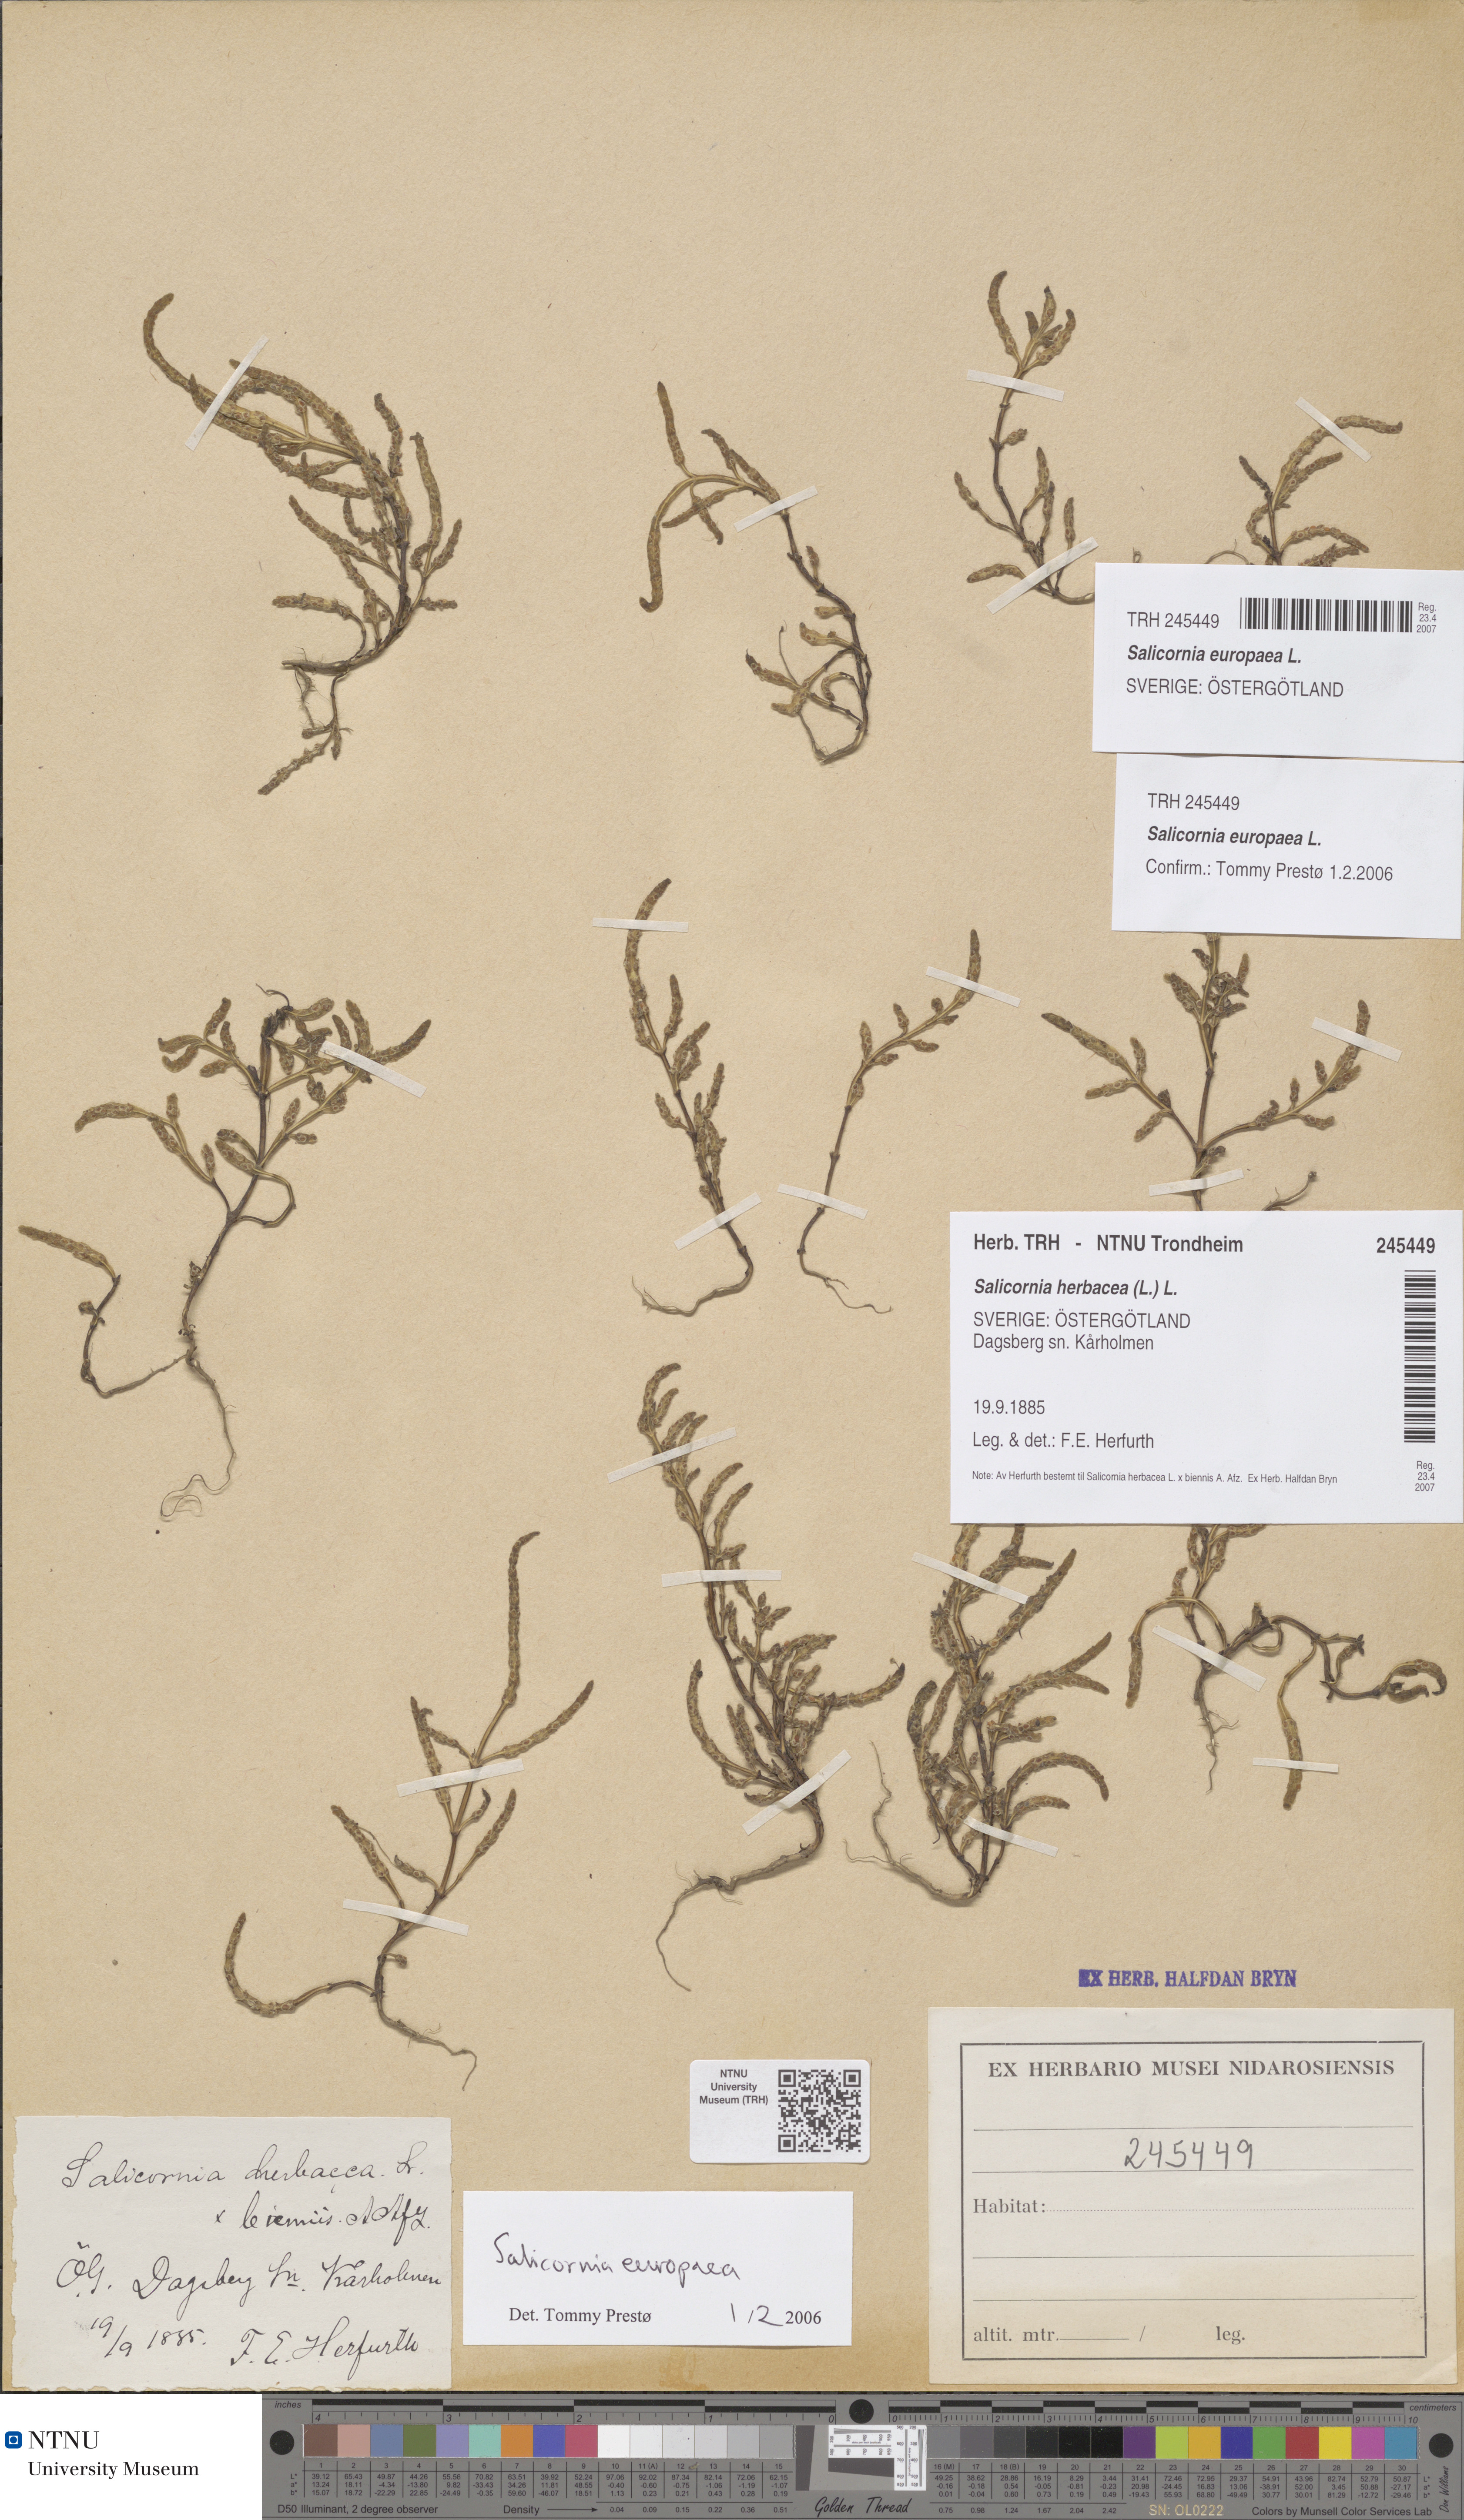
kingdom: Plantae
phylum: Tracheophyta
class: Magnoliopsida
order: Caryophyllales
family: Amaranthaceae
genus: Salicornia
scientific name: Salicornia europaea
